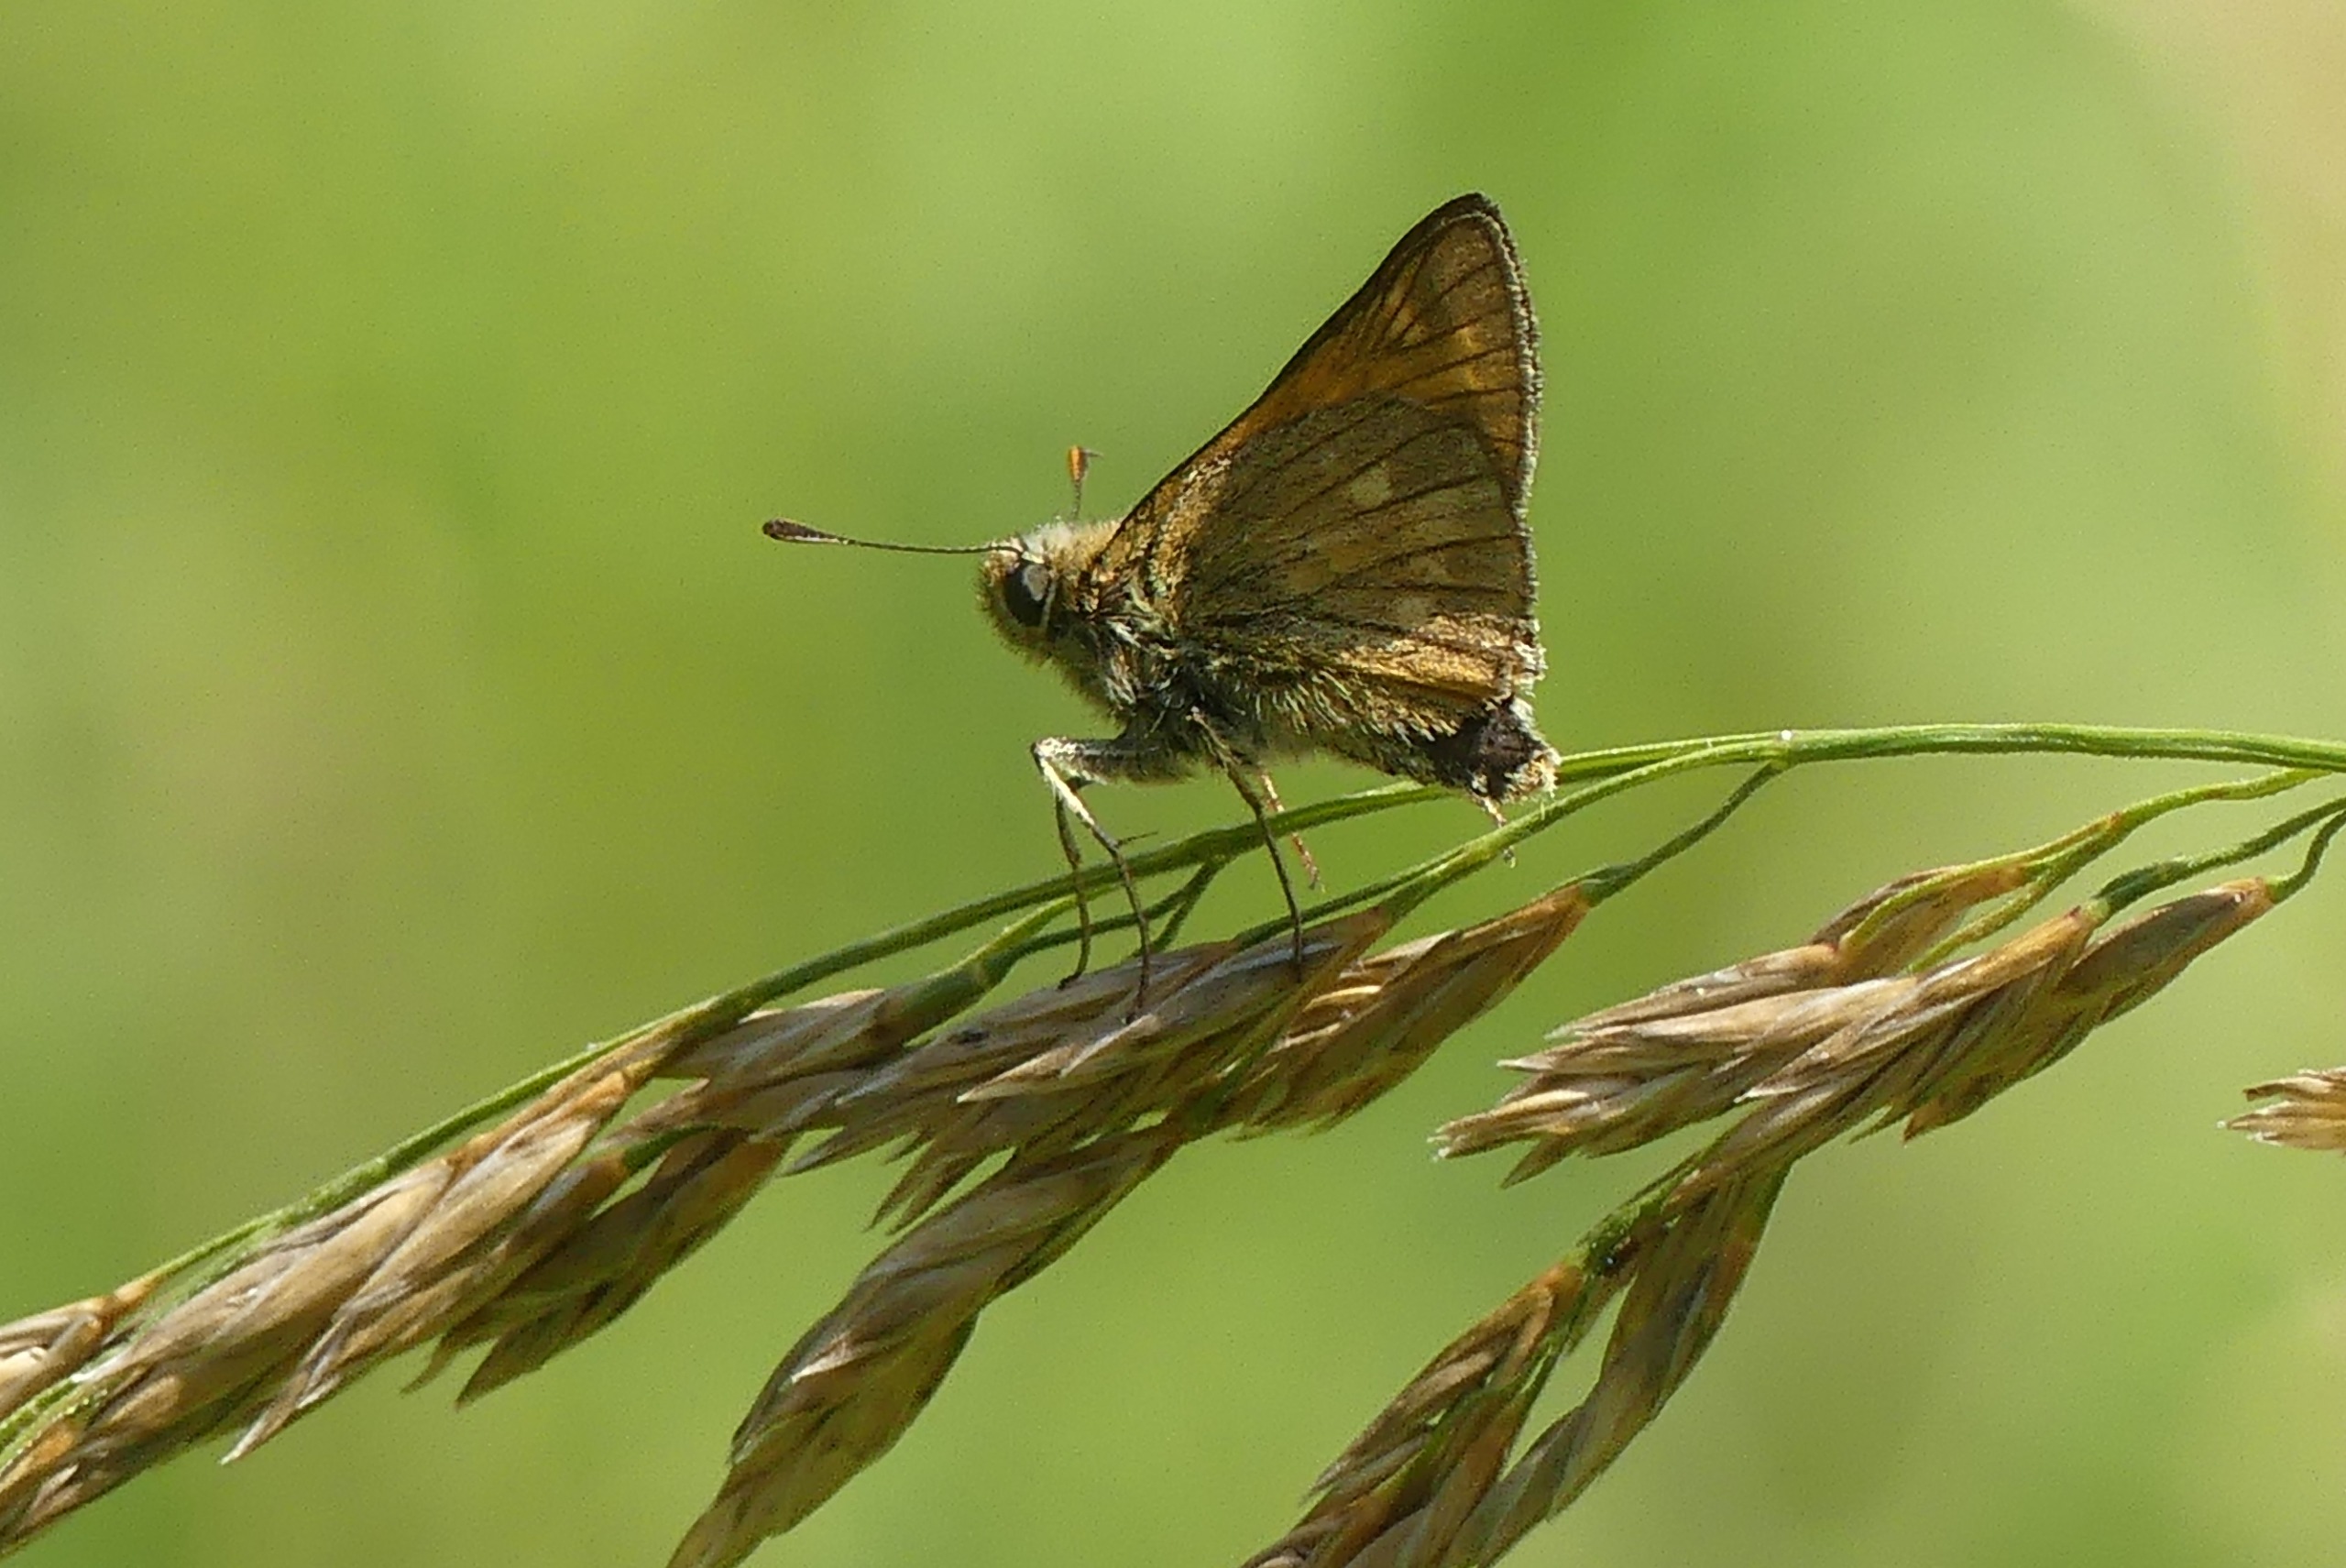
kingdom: Animalia
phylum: Arthropoda
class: Insecta
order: Lepidoptera
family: Hesperiidae
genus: Ochlodes
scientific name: Ochlodes venata
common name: Stor bredpande
